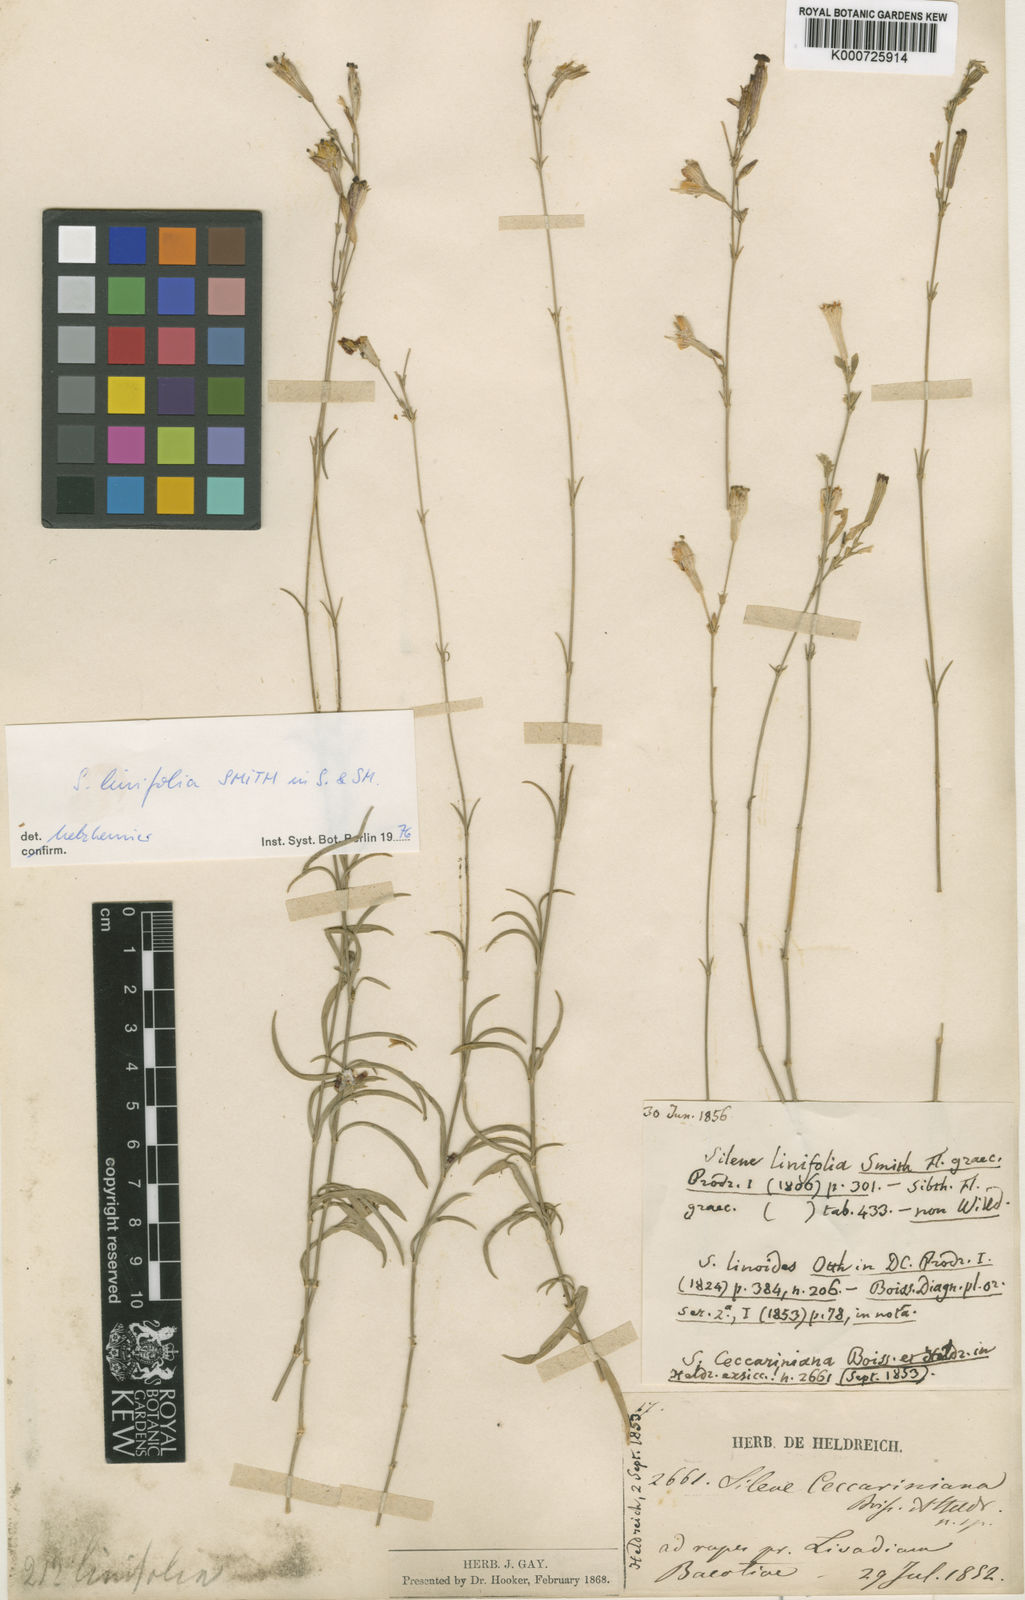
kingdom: Plantae
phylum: Tracheophyta
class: Magnoliopsida
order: Caryophyllales
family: Caryophyllaceae
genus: Silene
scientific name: Silene linoides
